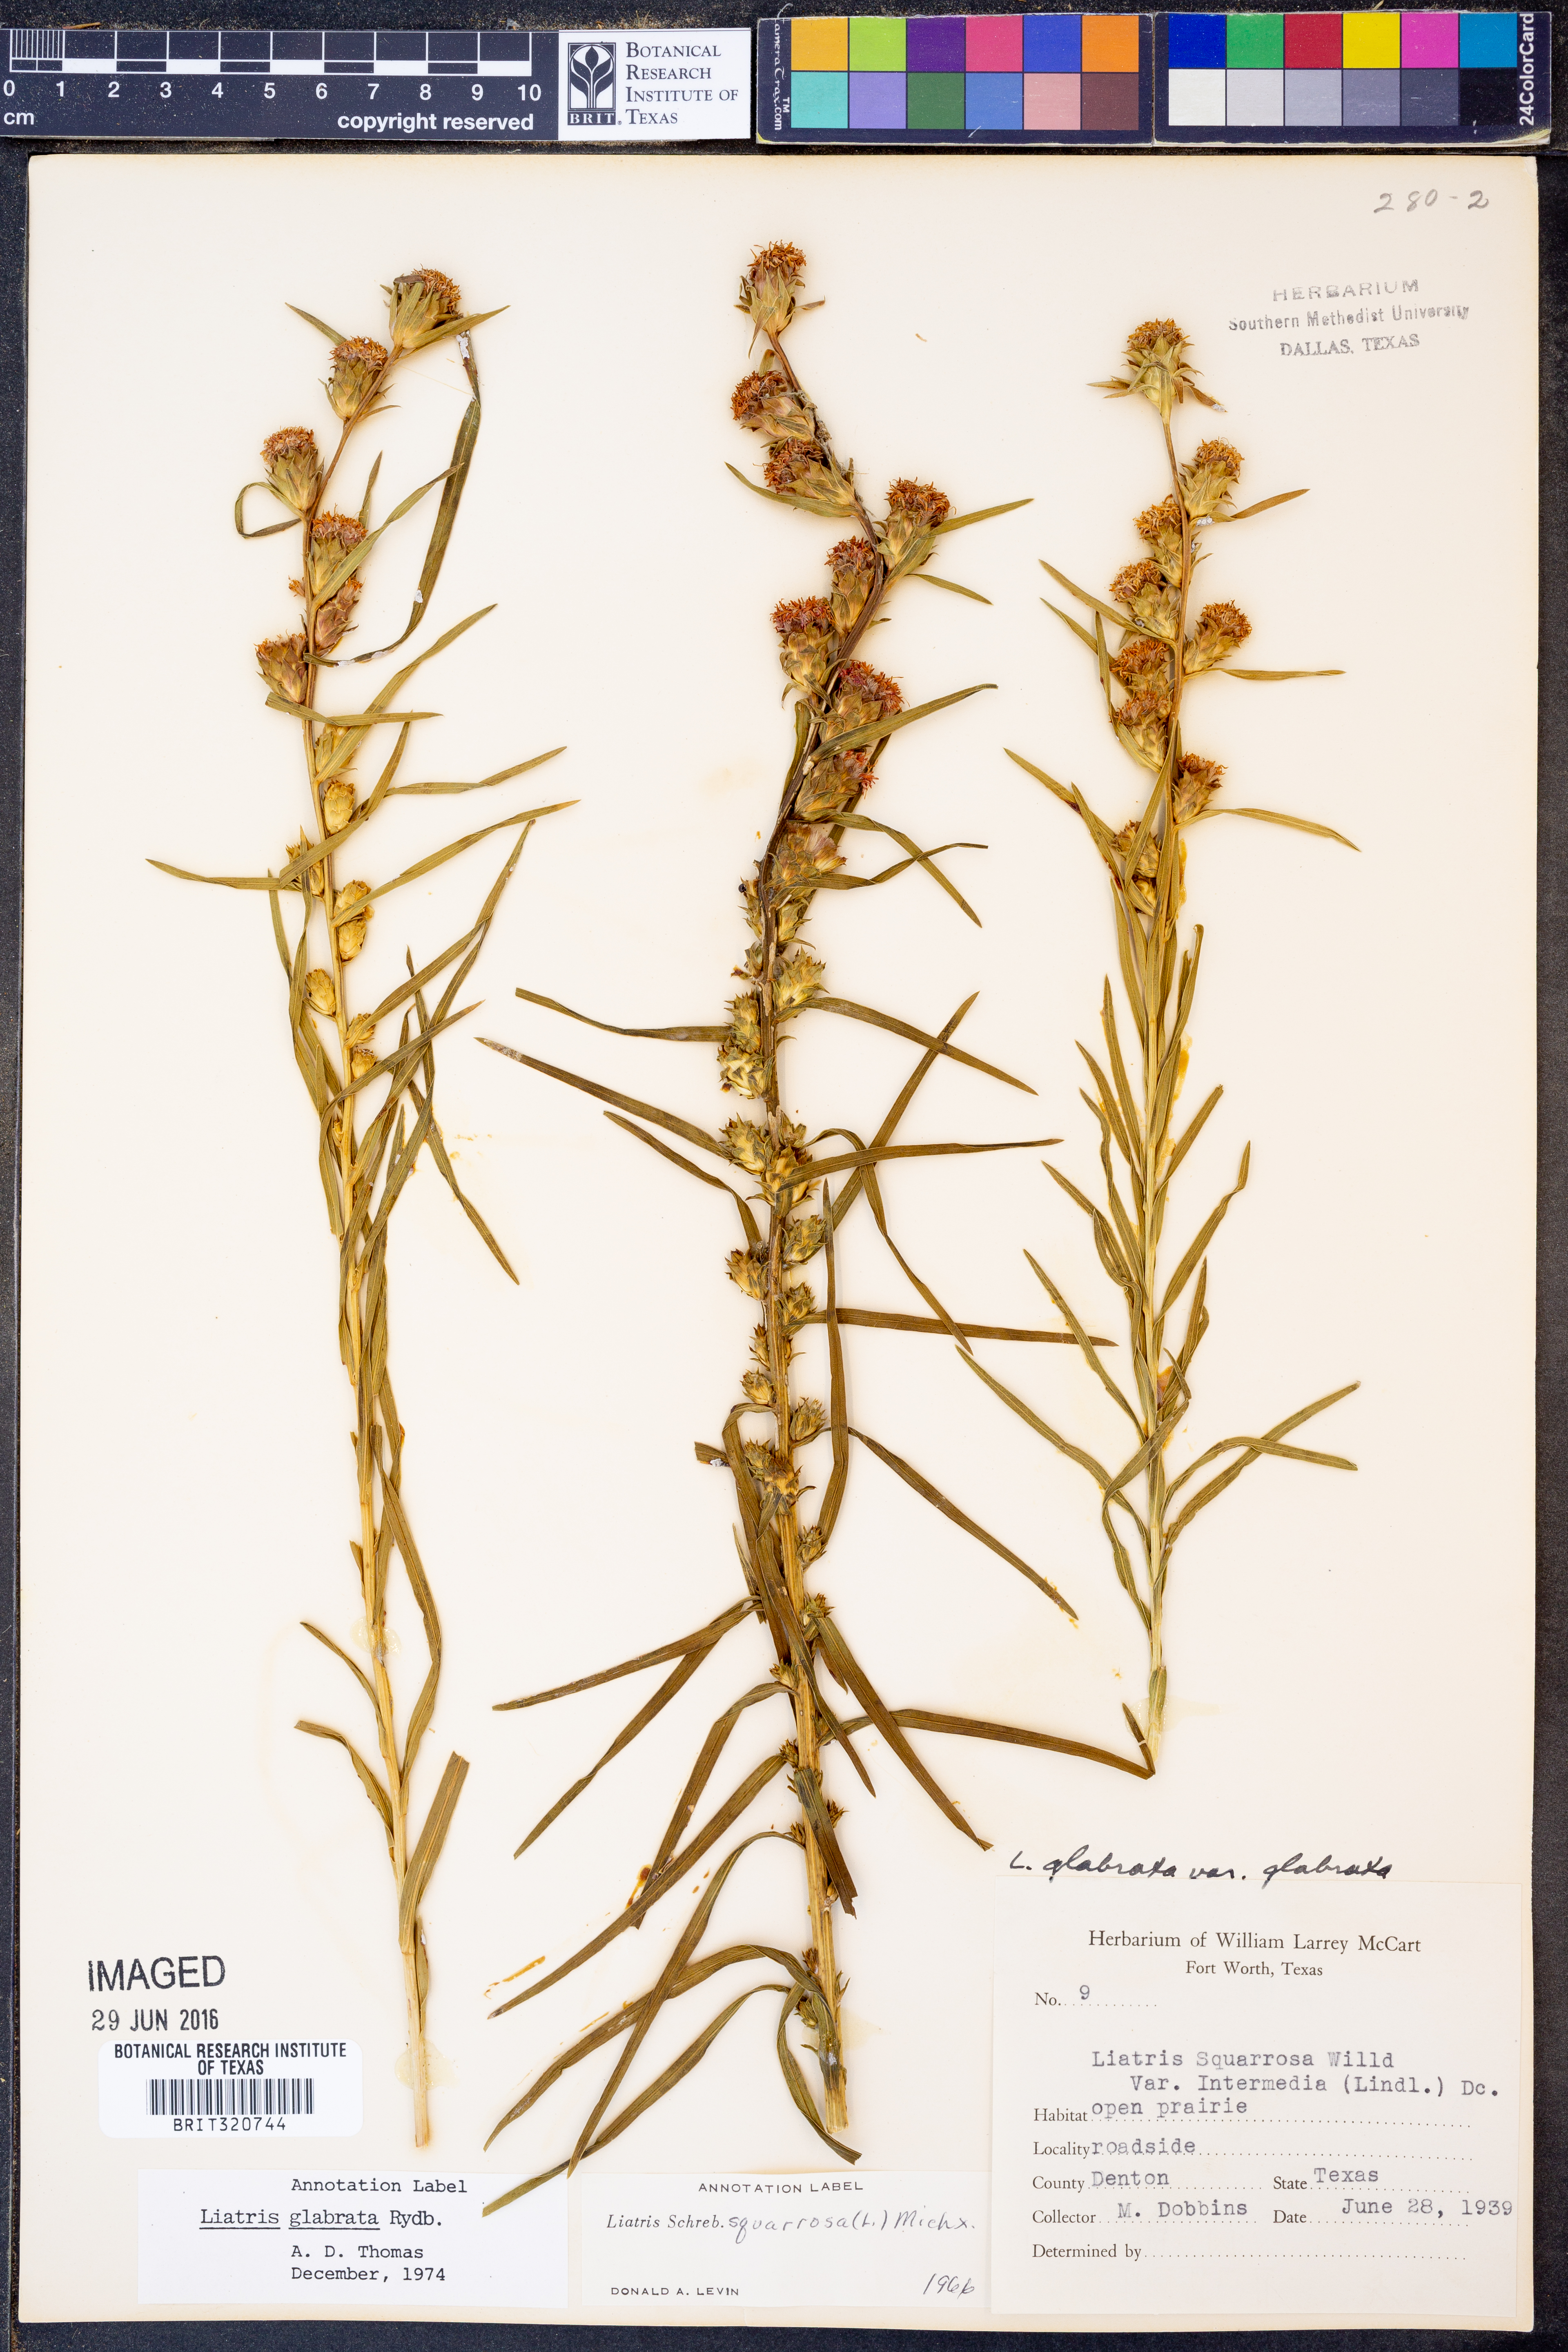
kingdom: Plantae
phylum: Tracheophyta
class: Magnoliopsida
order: Asterales
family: Asteraceae
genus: Liatris
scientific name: Liatris spicata
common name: Florist gayfeather
